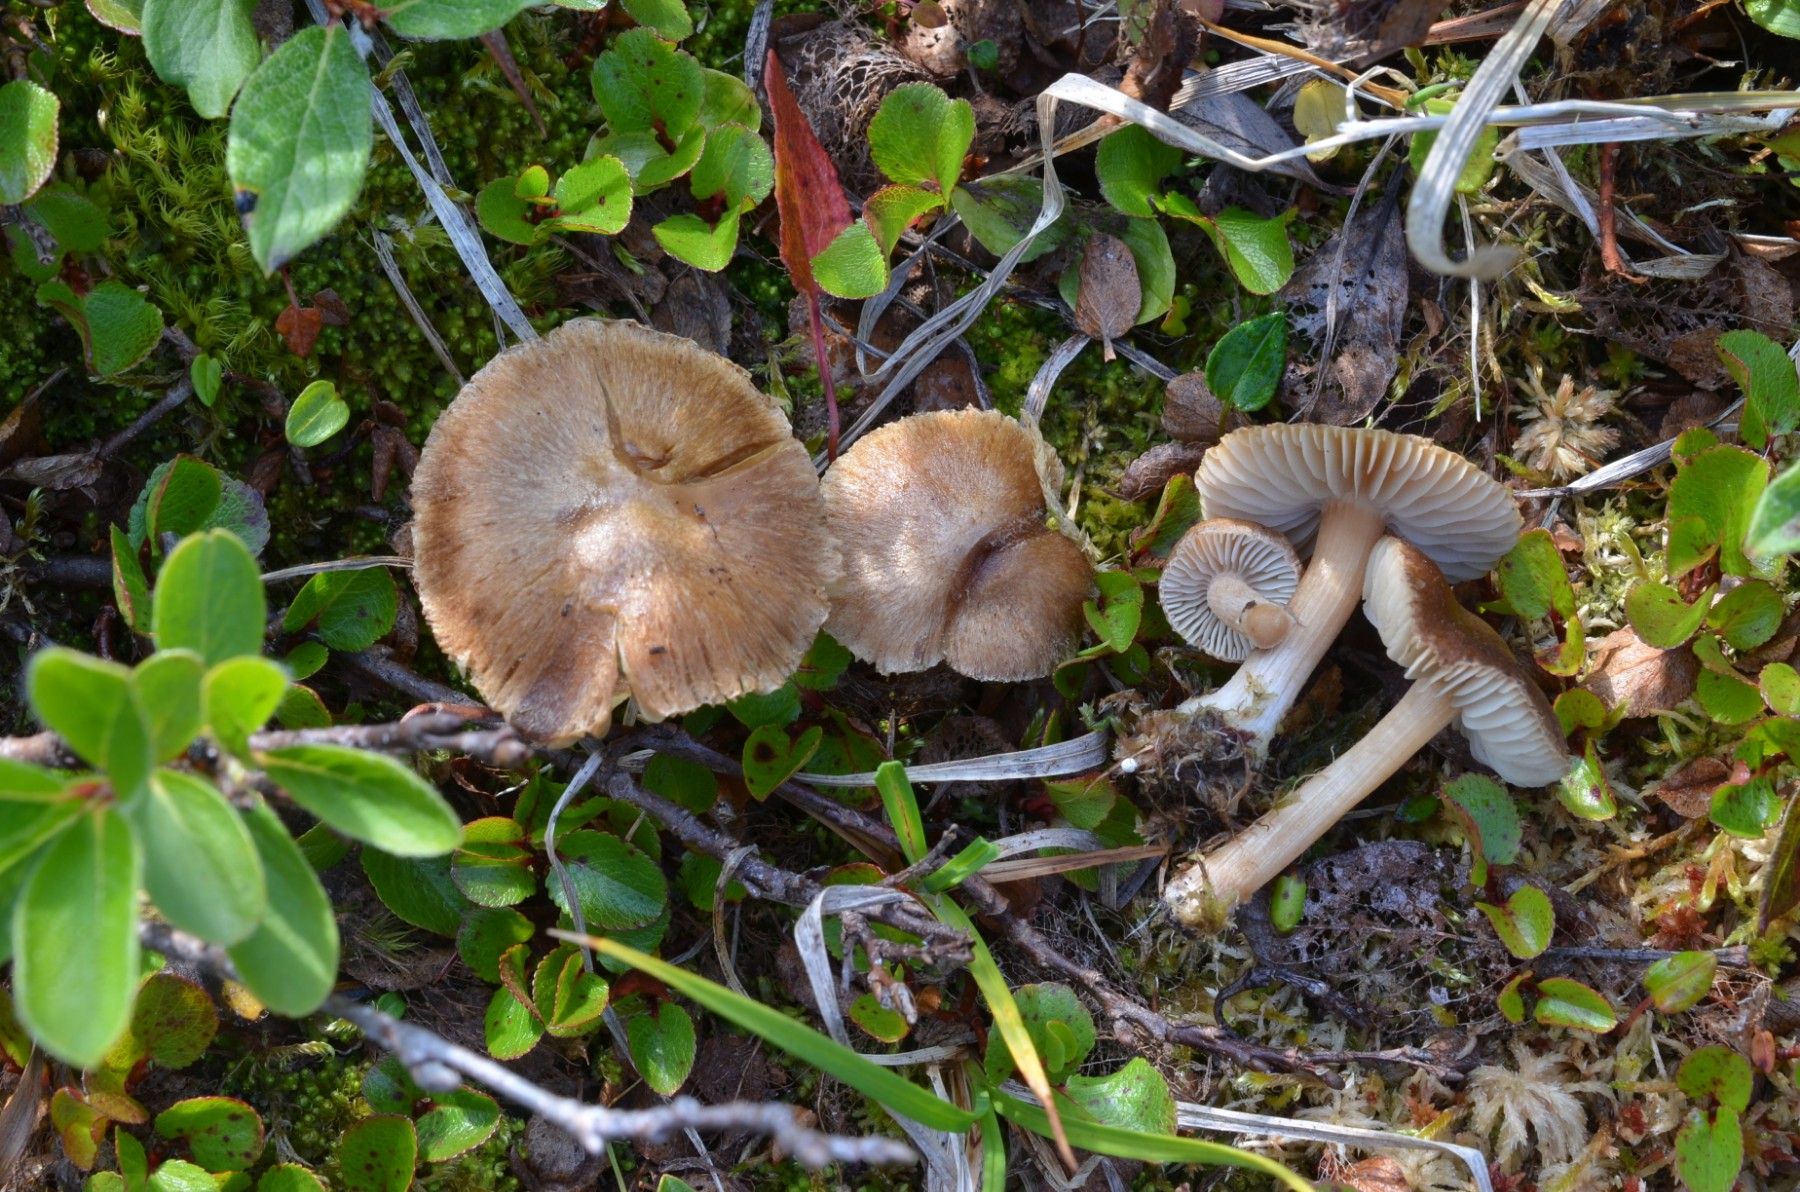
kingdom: Fungi
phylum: Basidiomycota
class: Agaricomycetes
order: Agaricales
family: Inocybaceae
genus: Inocybe
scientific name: Inocybe
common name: trævlhat
